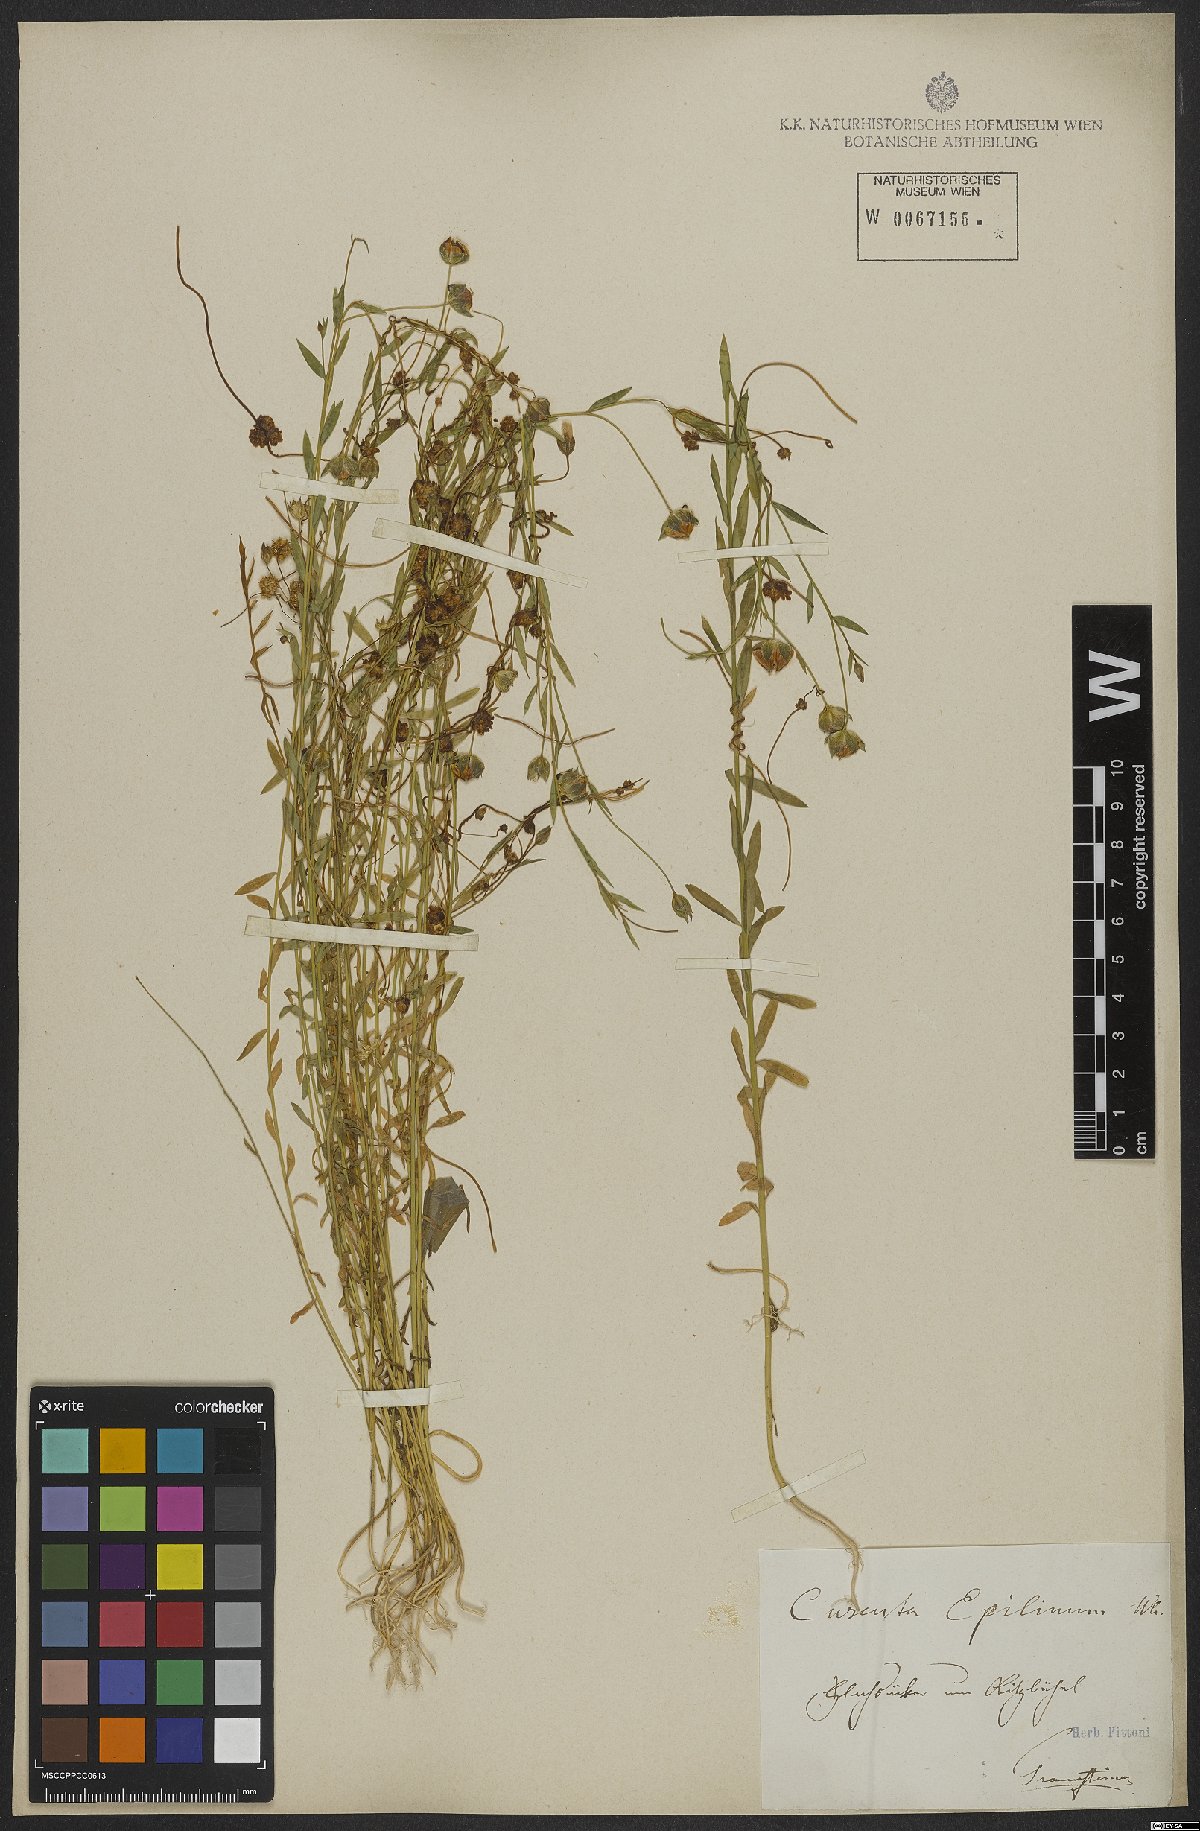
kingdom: Plantae
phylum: Tracheophyta
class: Magnoliopsida
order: Solanales
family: Convolvulaceae
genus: Cuscuta
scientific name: Cuscuta epilinum
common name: Flax dodder
